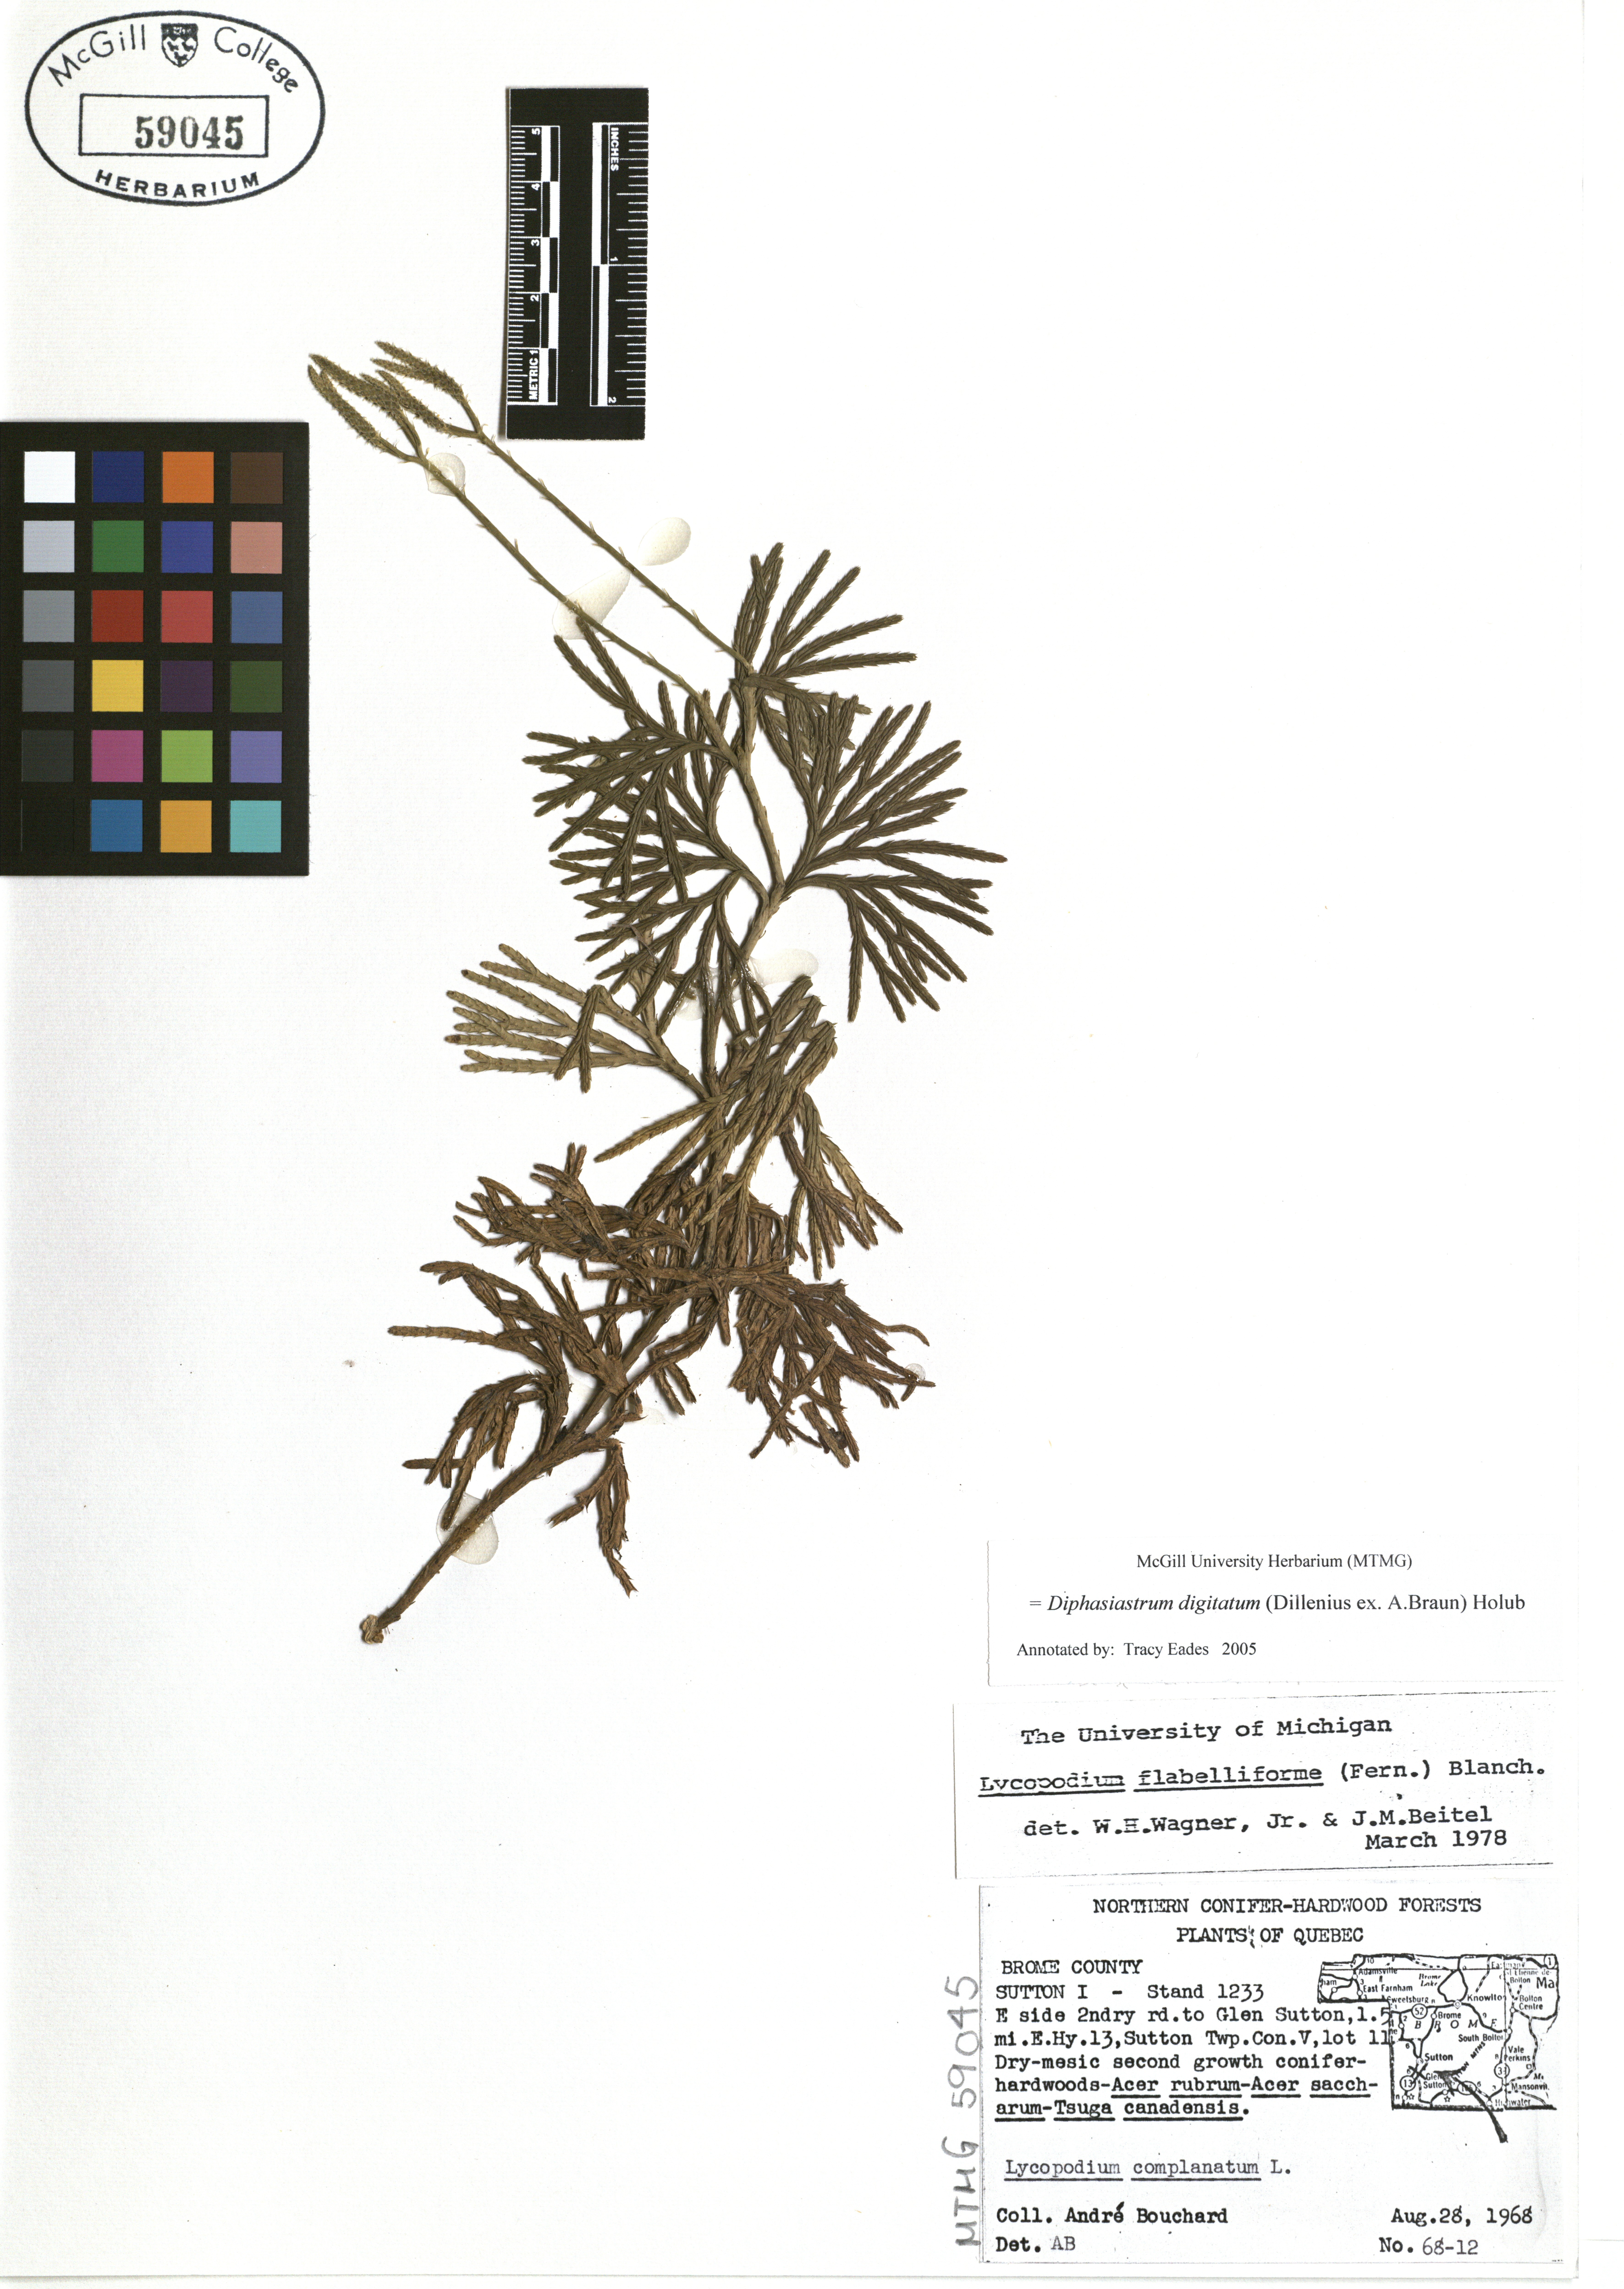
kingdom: Plantae
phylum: Tracheophyta
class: Lycopodiopsida
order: Lycopodiales
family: Lycopodiaceae
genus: Diphasiastrum
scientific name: Diphasiastrum digitatum
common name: Southern running-pine
